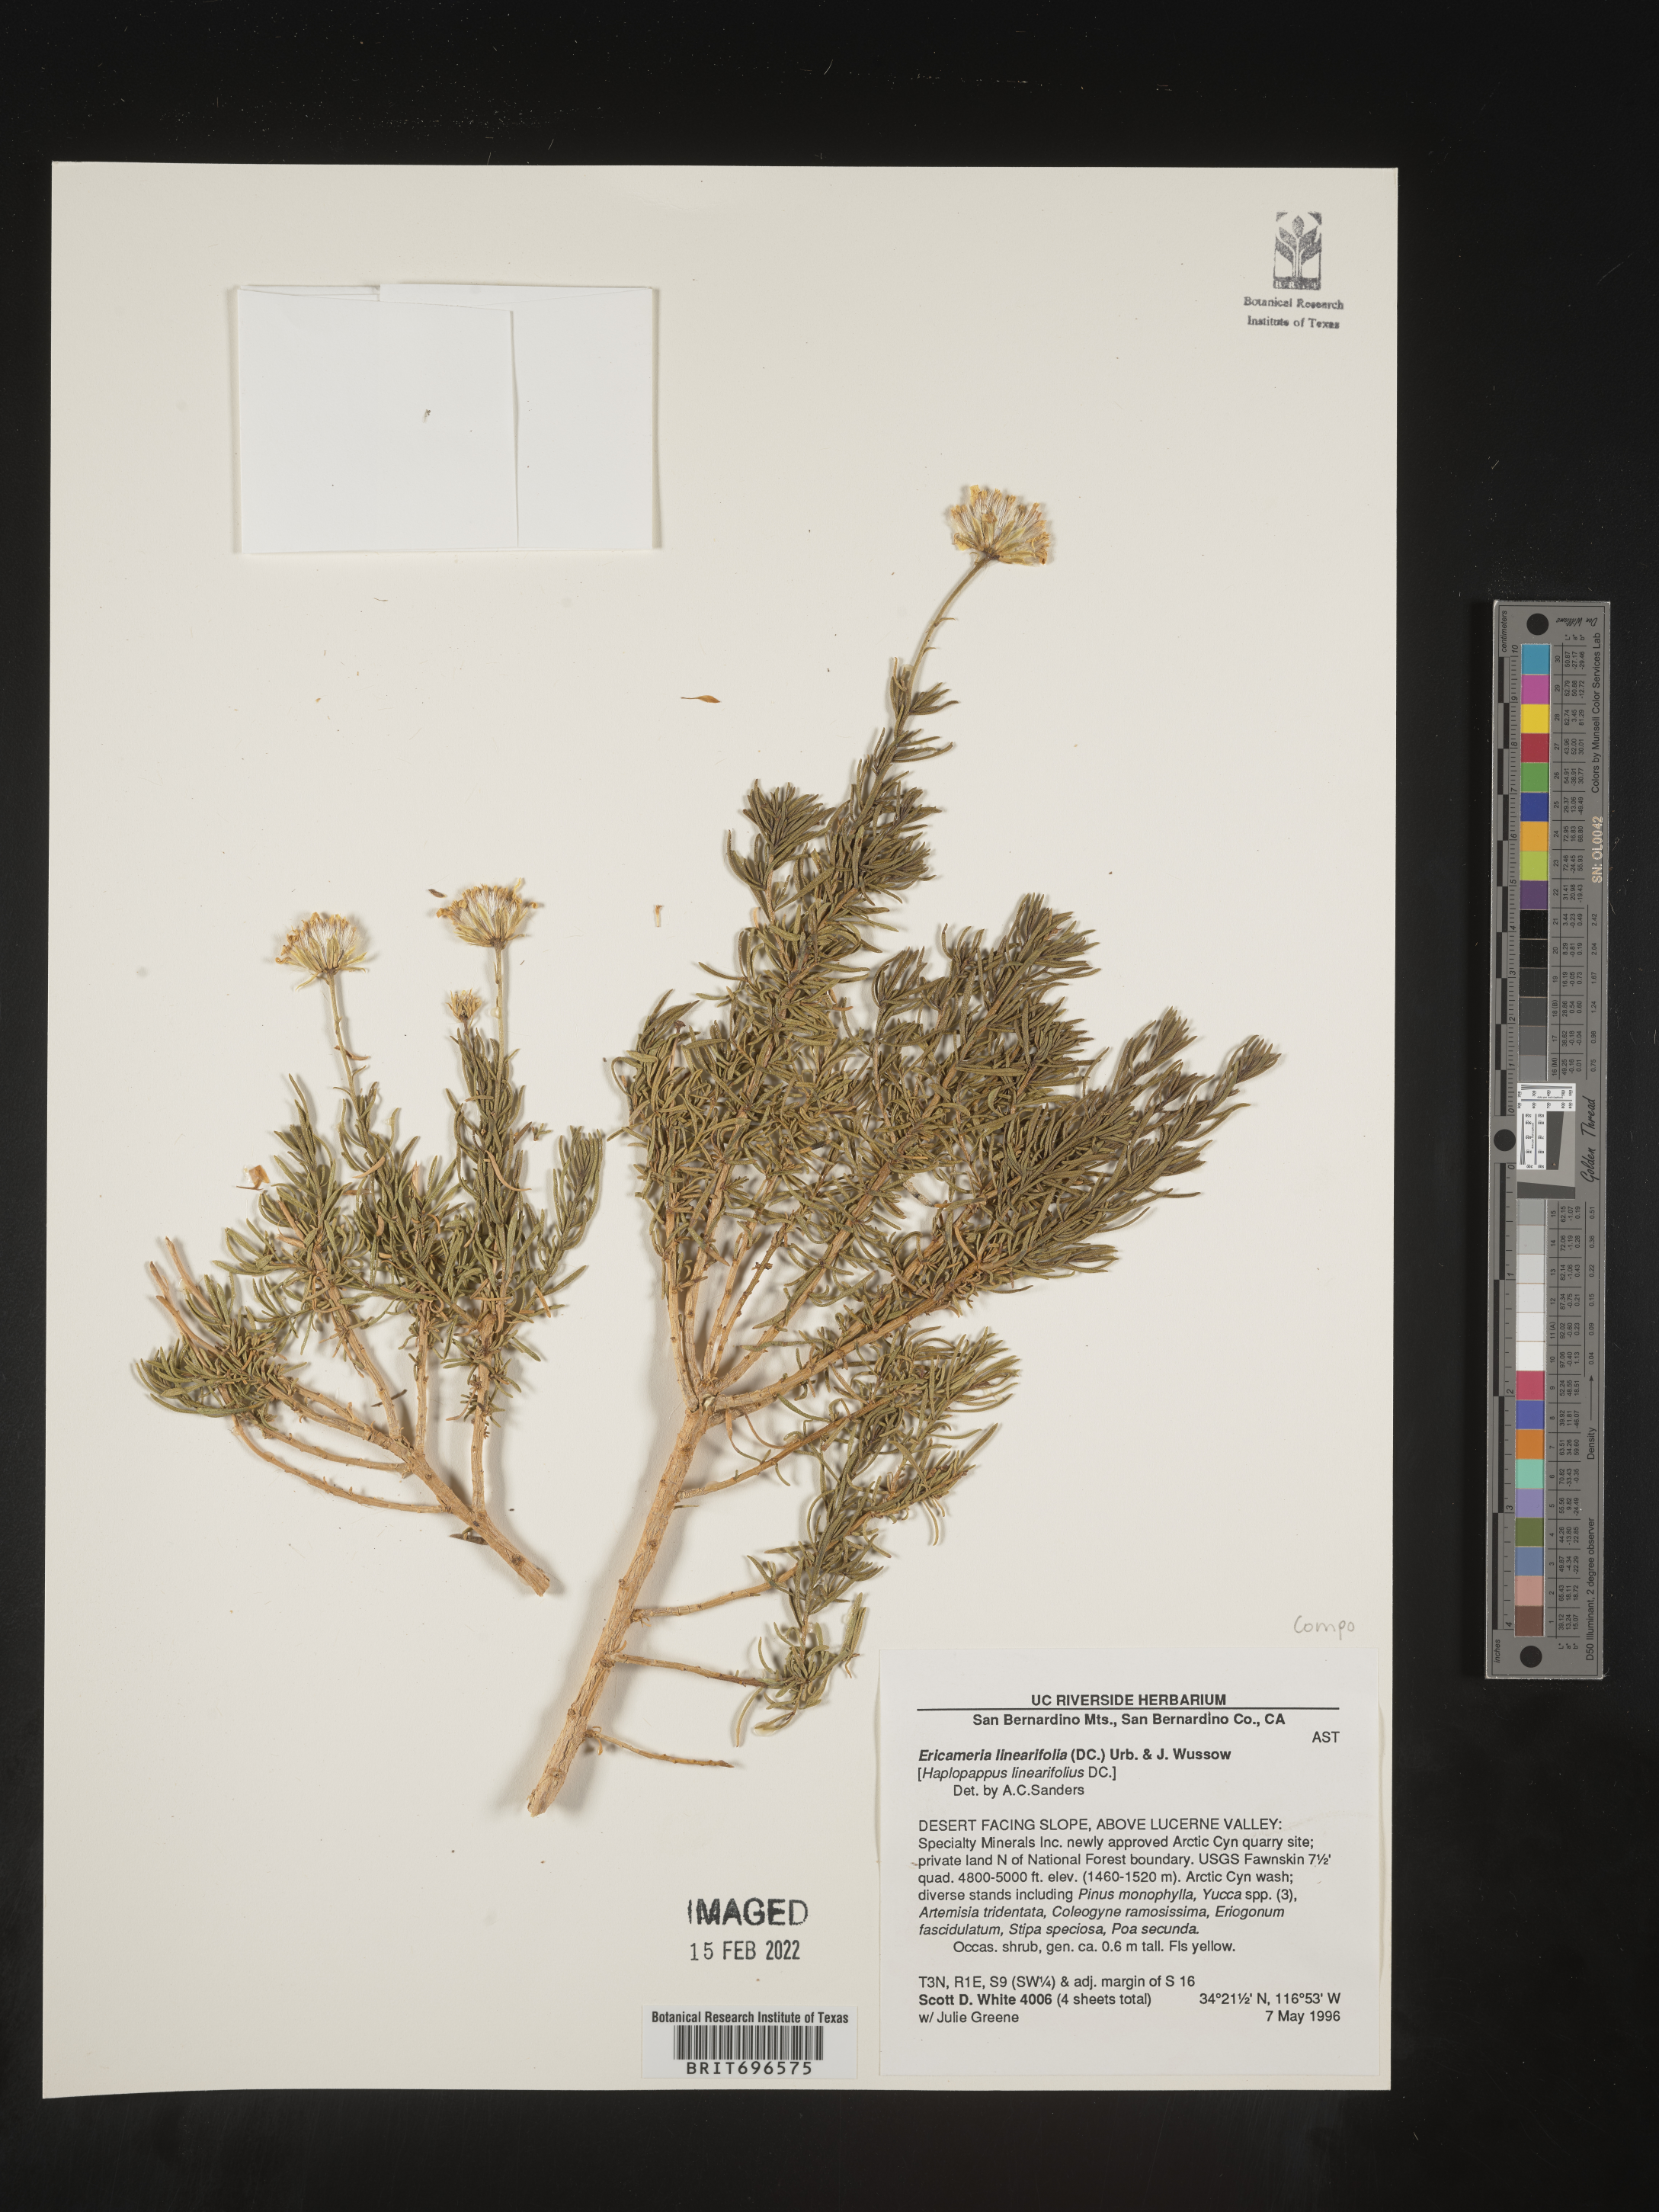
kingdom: Plantae
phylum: Tracheophyta
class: Magnoliopsida
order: Asterales
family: Asteraceae
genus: Ericameria
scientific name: Ericameria linearifolia
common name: Interior goldenbush
